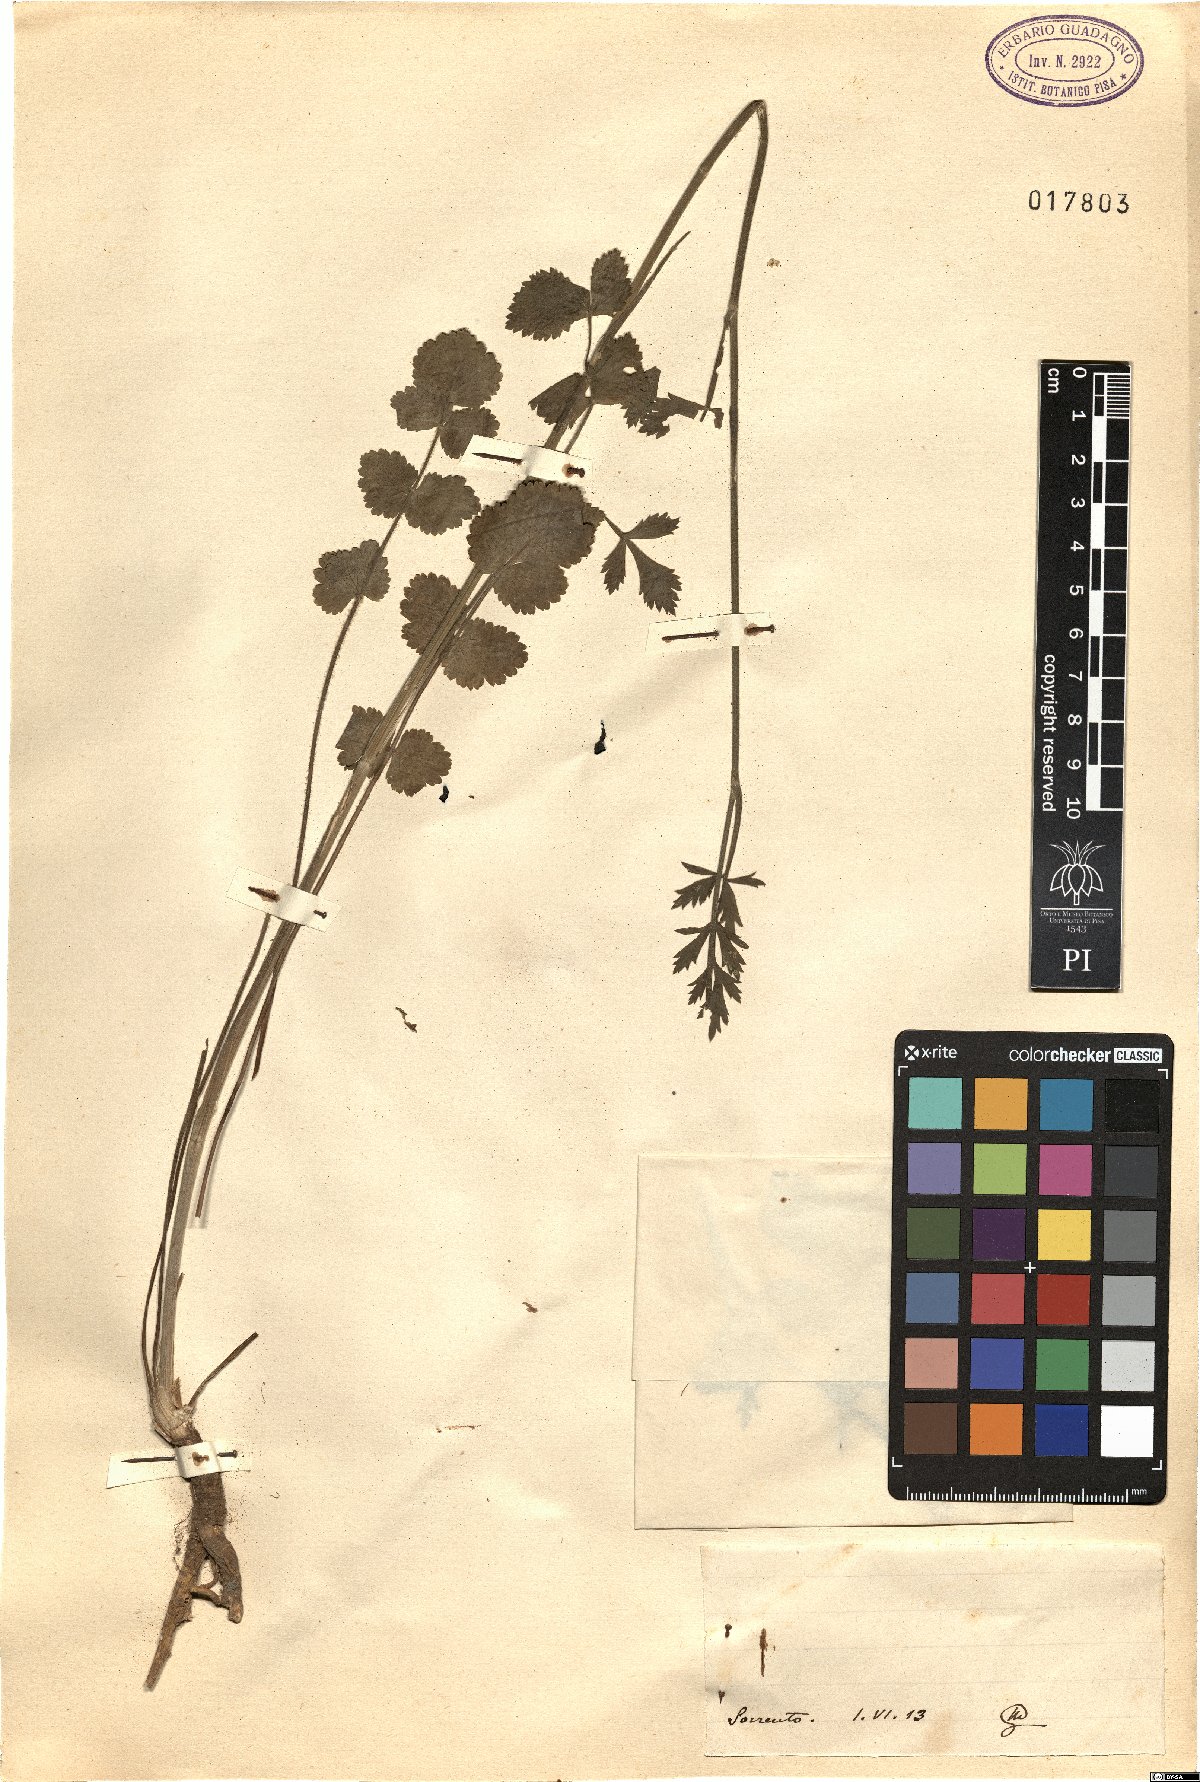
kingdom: Plantae
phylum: Tracheophyta
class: Magnoliopsida
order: Apiales
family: Apiaceae
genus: Pimpinella
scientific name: Pimpinella
